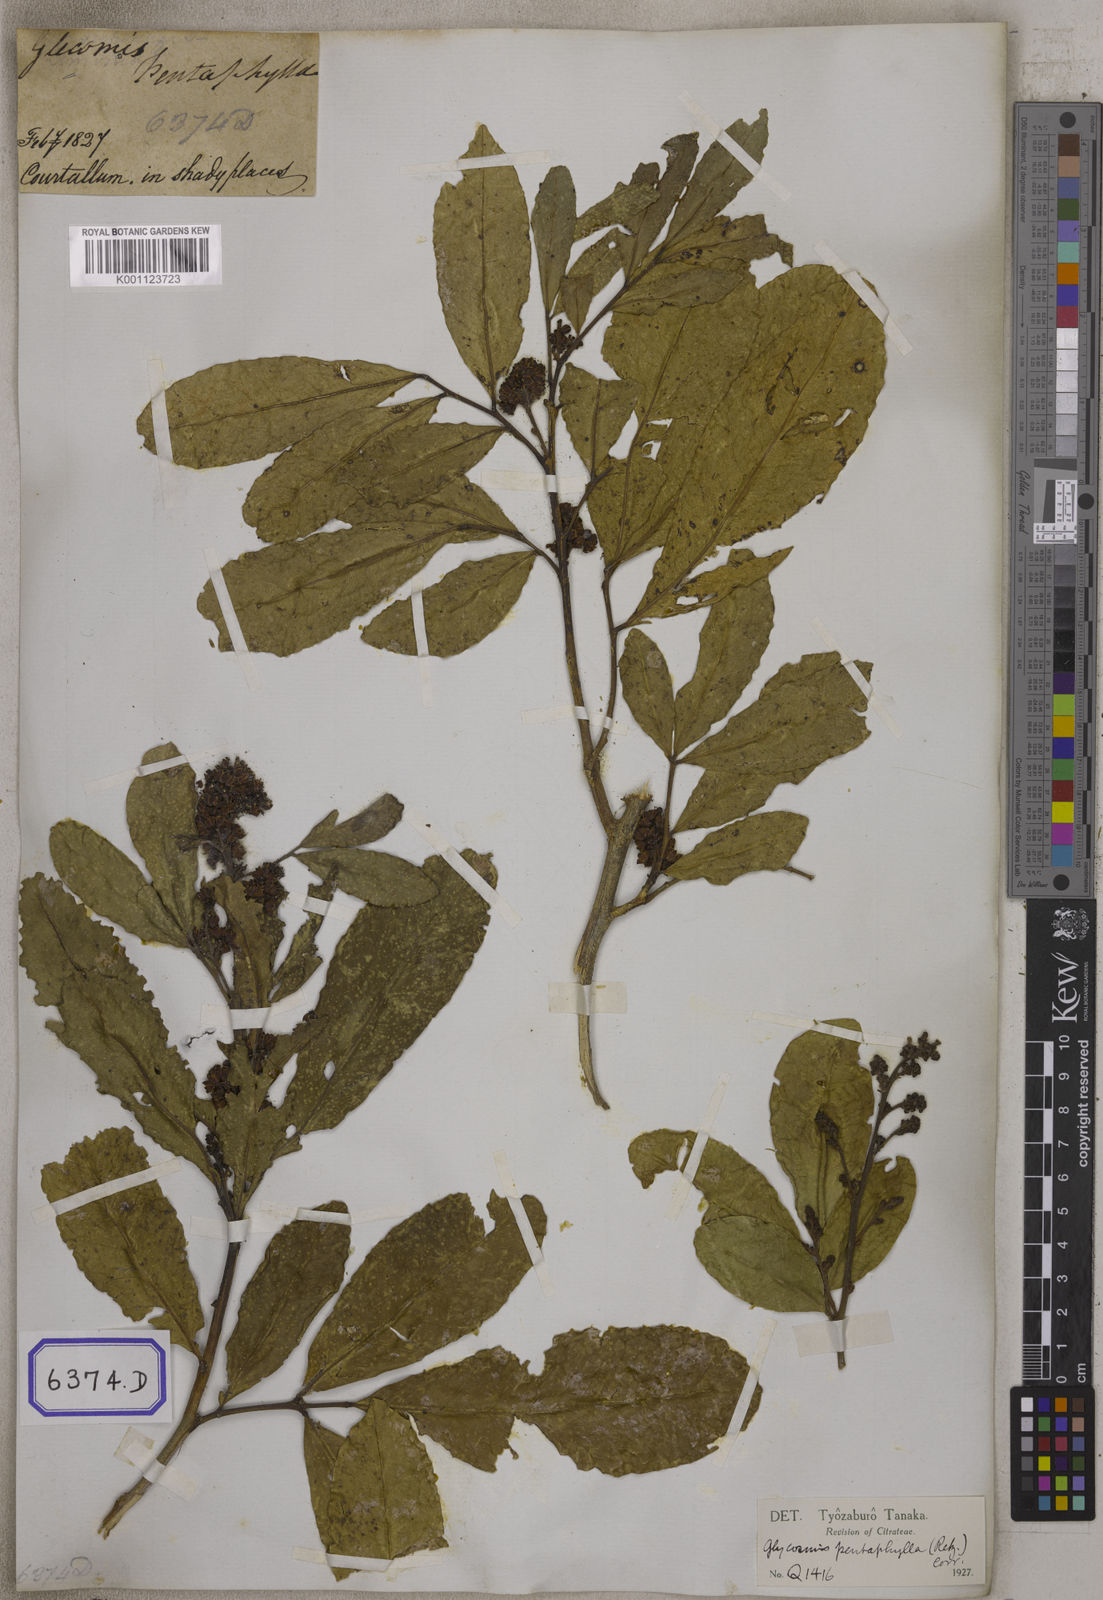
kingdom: Plantae
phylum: Tracheophyta
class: Magnoliopsida
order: Sapindales
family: Rutaceae
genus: Glycosmis
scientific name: Glycosmis pentaphylla
